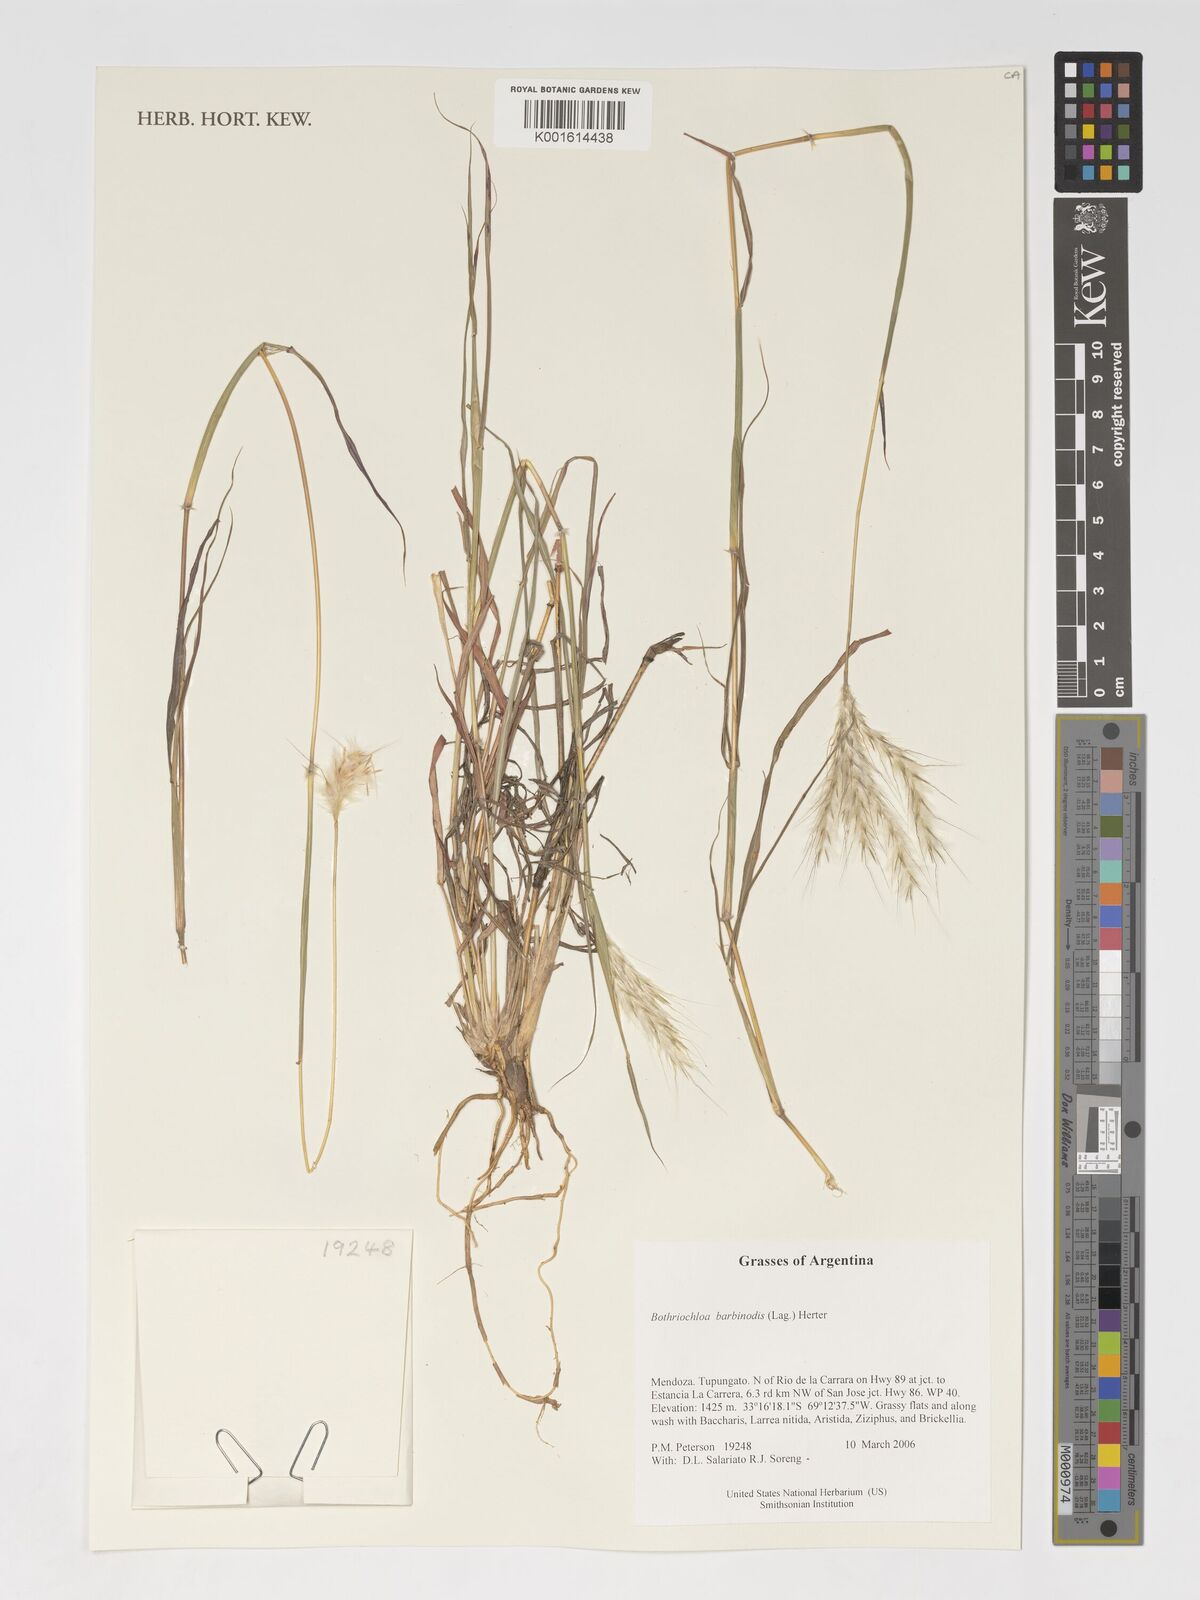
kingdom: Plantae
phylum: Tracheophyta
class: Liliopsida
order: Poales
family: Poaceae
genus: Bothriochloa
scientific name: Bothriochloa barbinodis
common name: Cane bluestem
